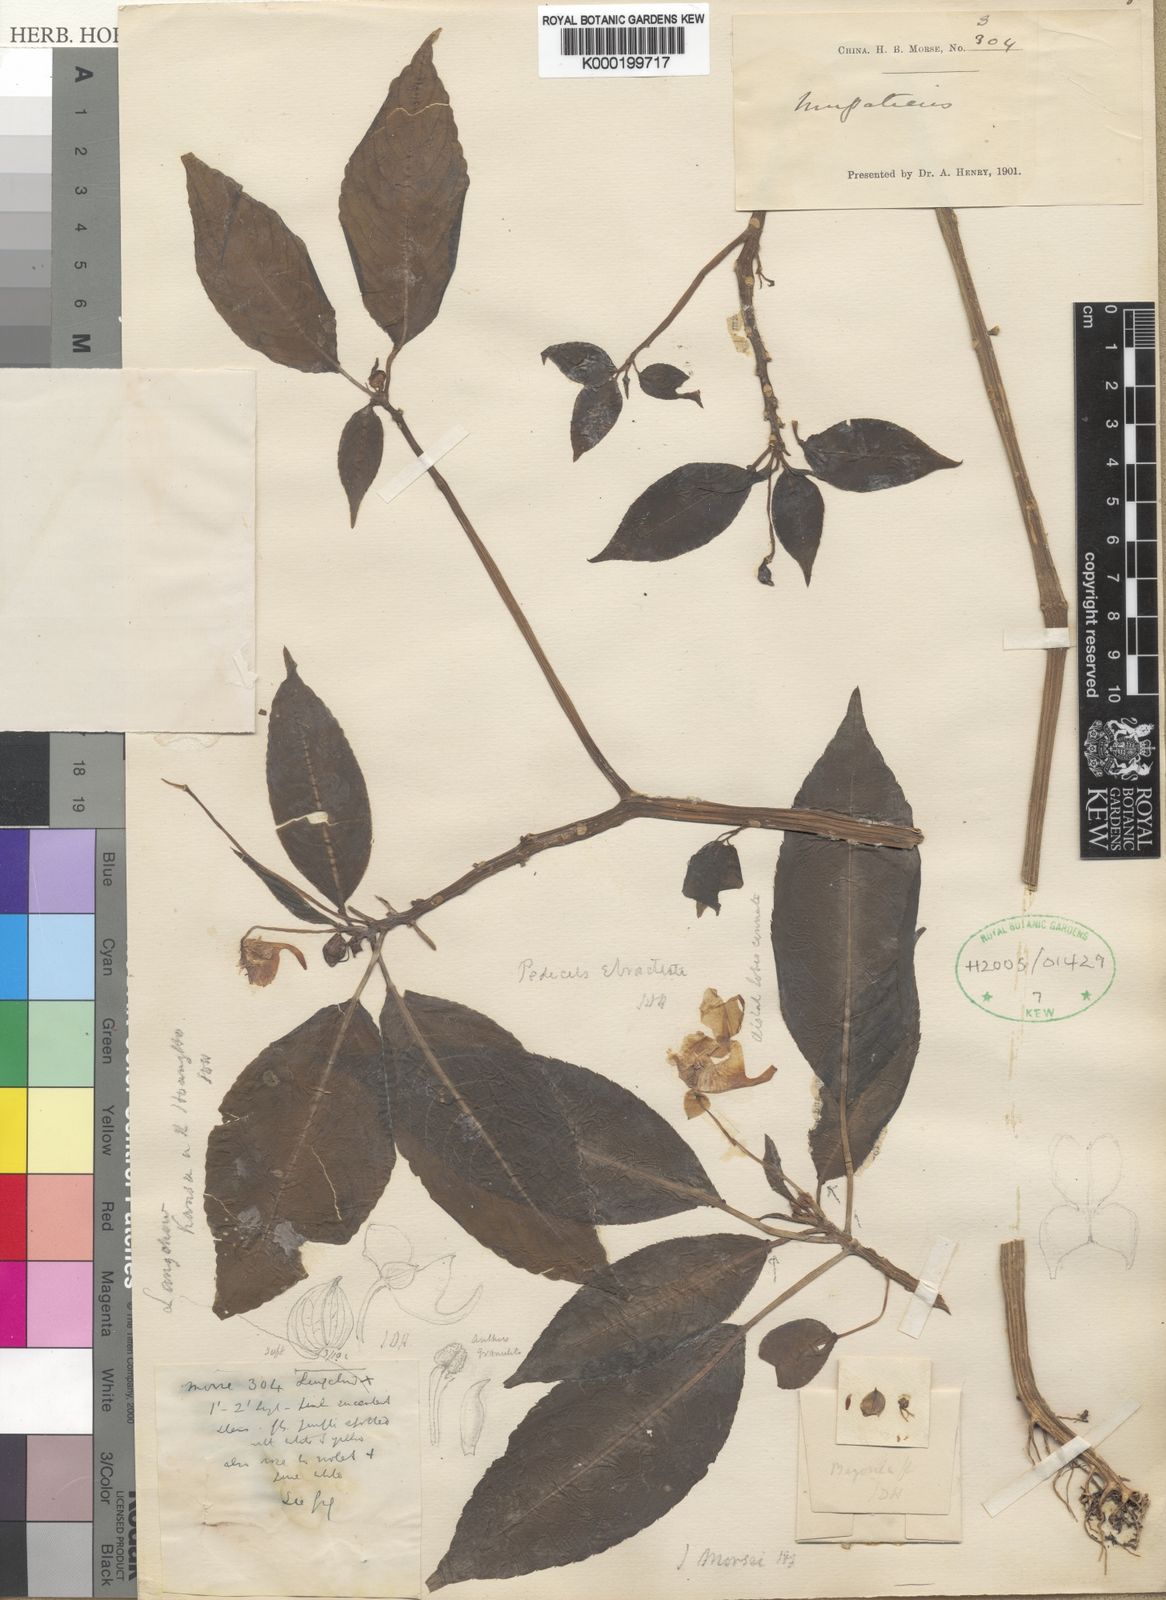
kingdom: Plantae
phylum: Tracheophyta
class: Magnoliopsida
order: Ericales
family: Balsaminaceae
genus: Impatiens
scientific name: Impatiens morsei
